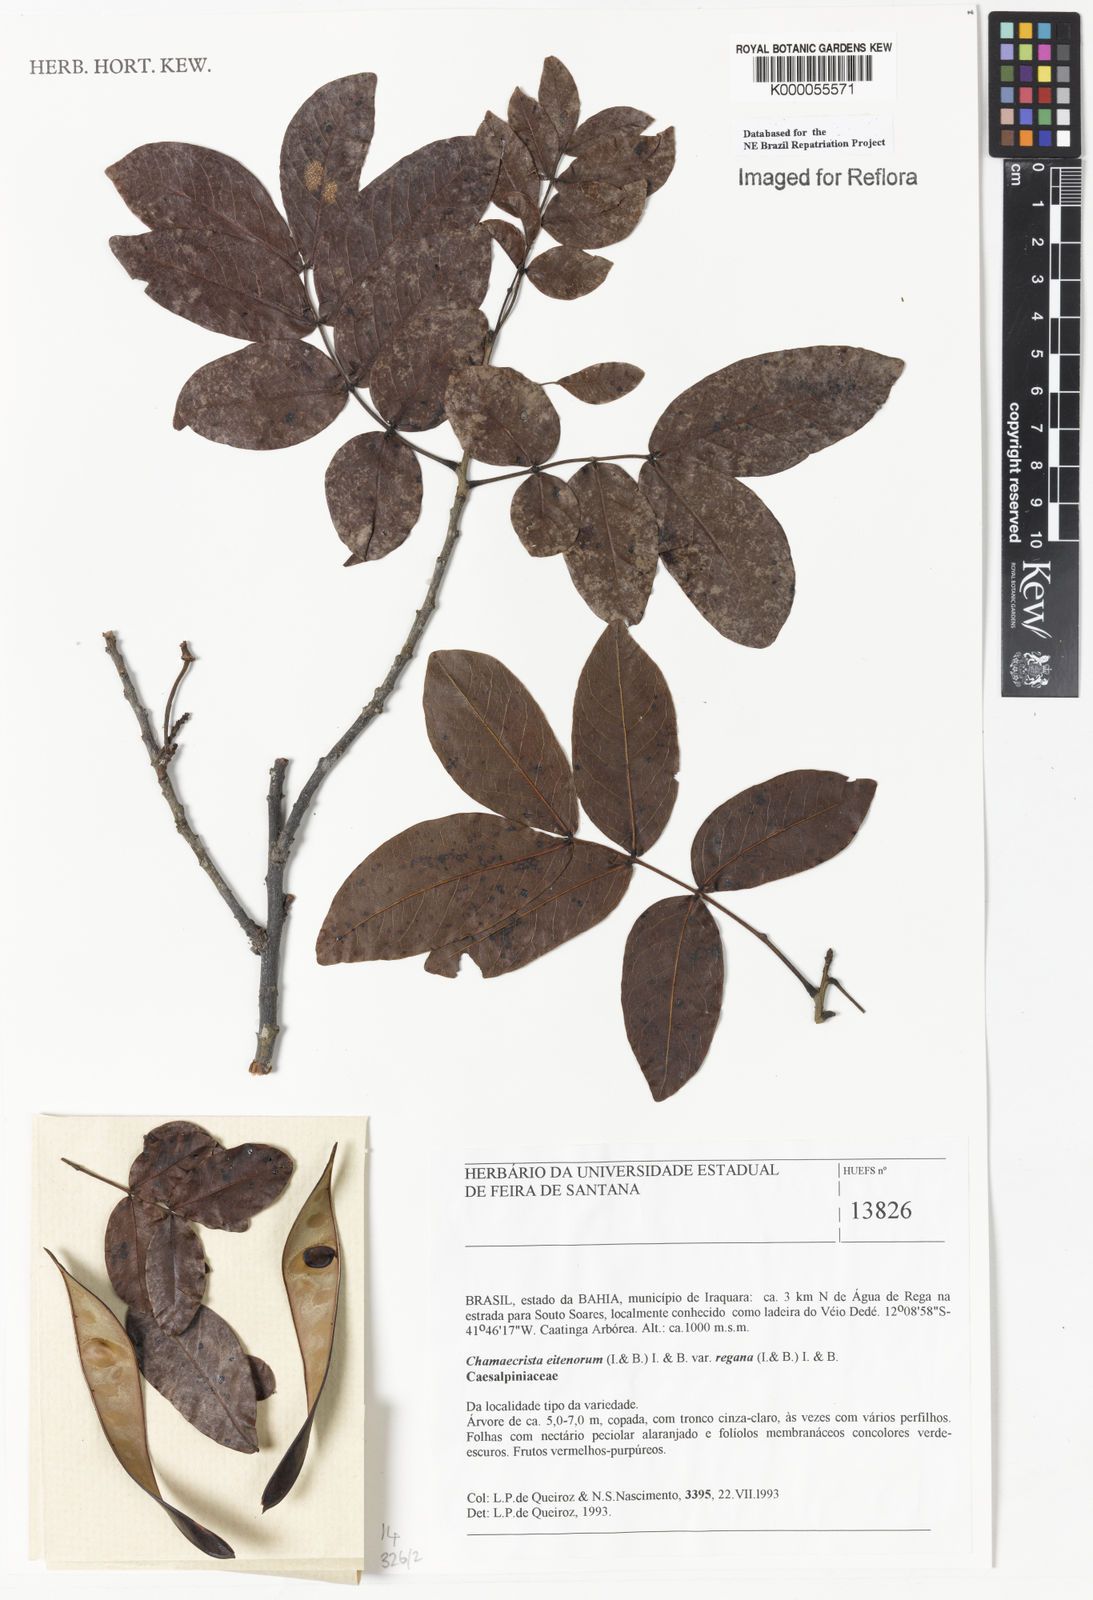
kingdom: Plantae
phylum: Tracheophyta
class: Magnoliopsida
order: Fabales
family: Fabaceae
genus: Chamaecrista
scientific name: Chamaecrista eitenorum
